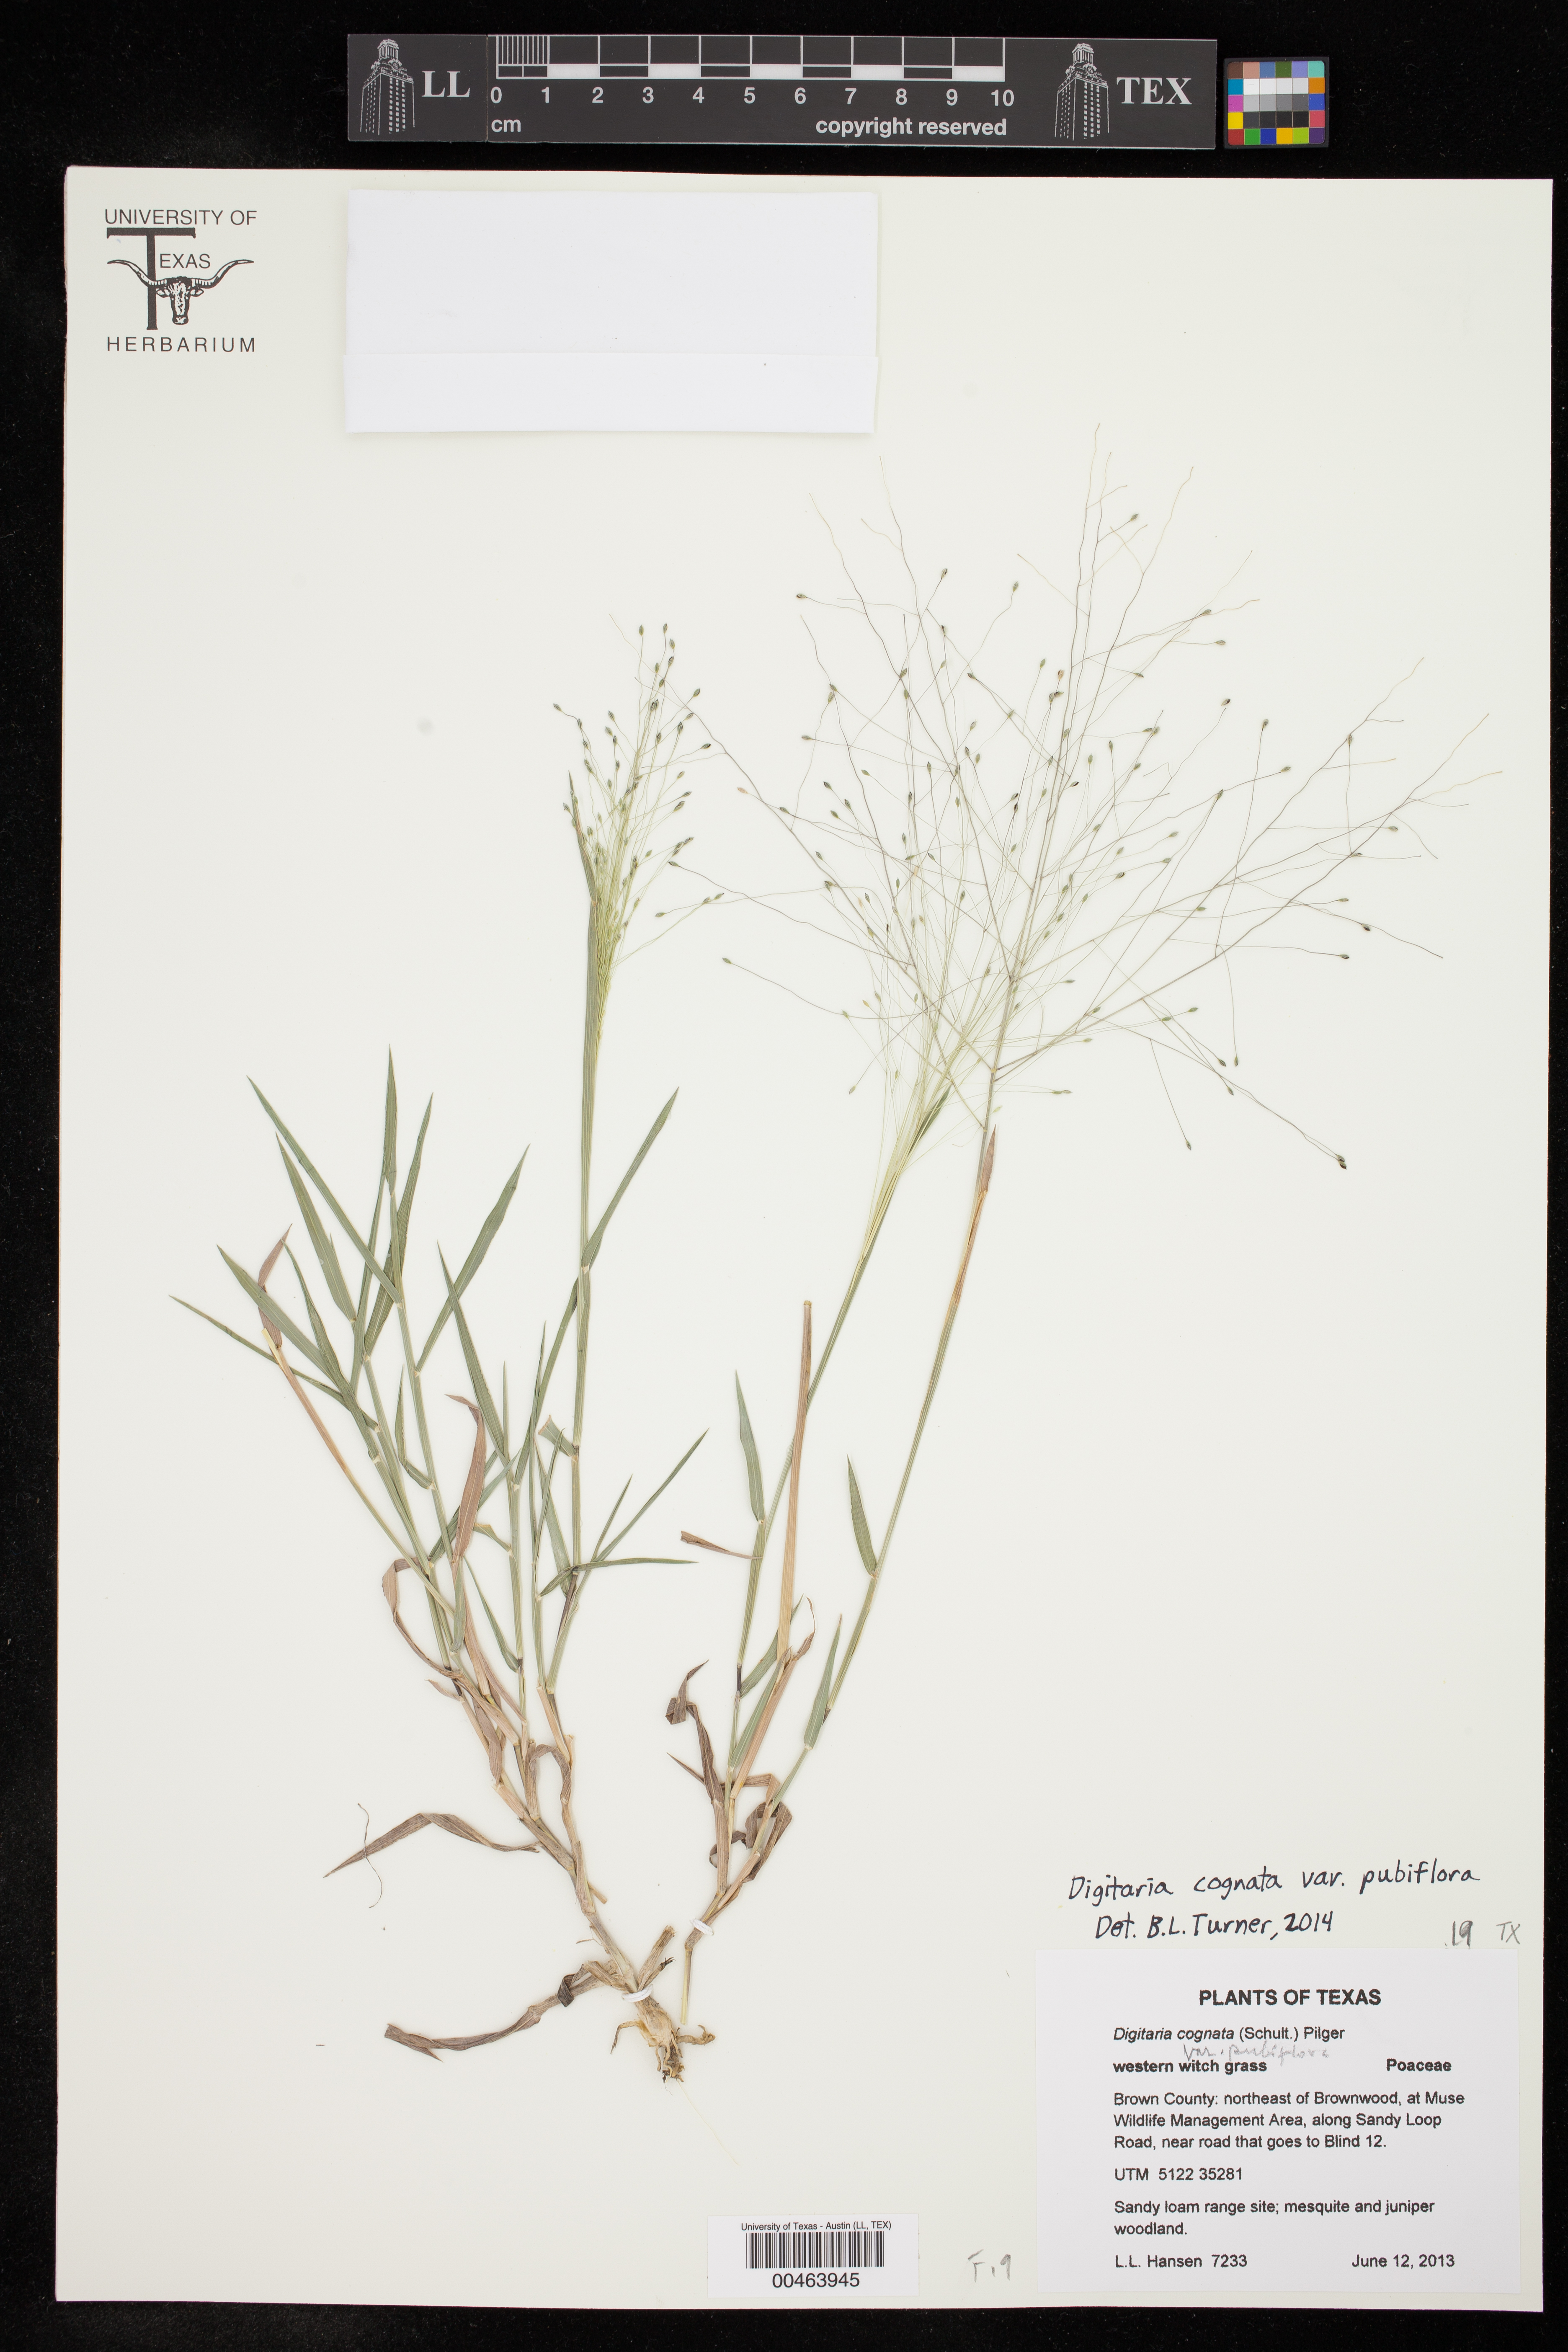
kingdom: Plantae
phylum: Tracheophyta
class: Liliopsida
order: Poales
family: Poaceae
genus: Digitaria
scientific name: Digitaria cognata
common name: Fall witchgrass
